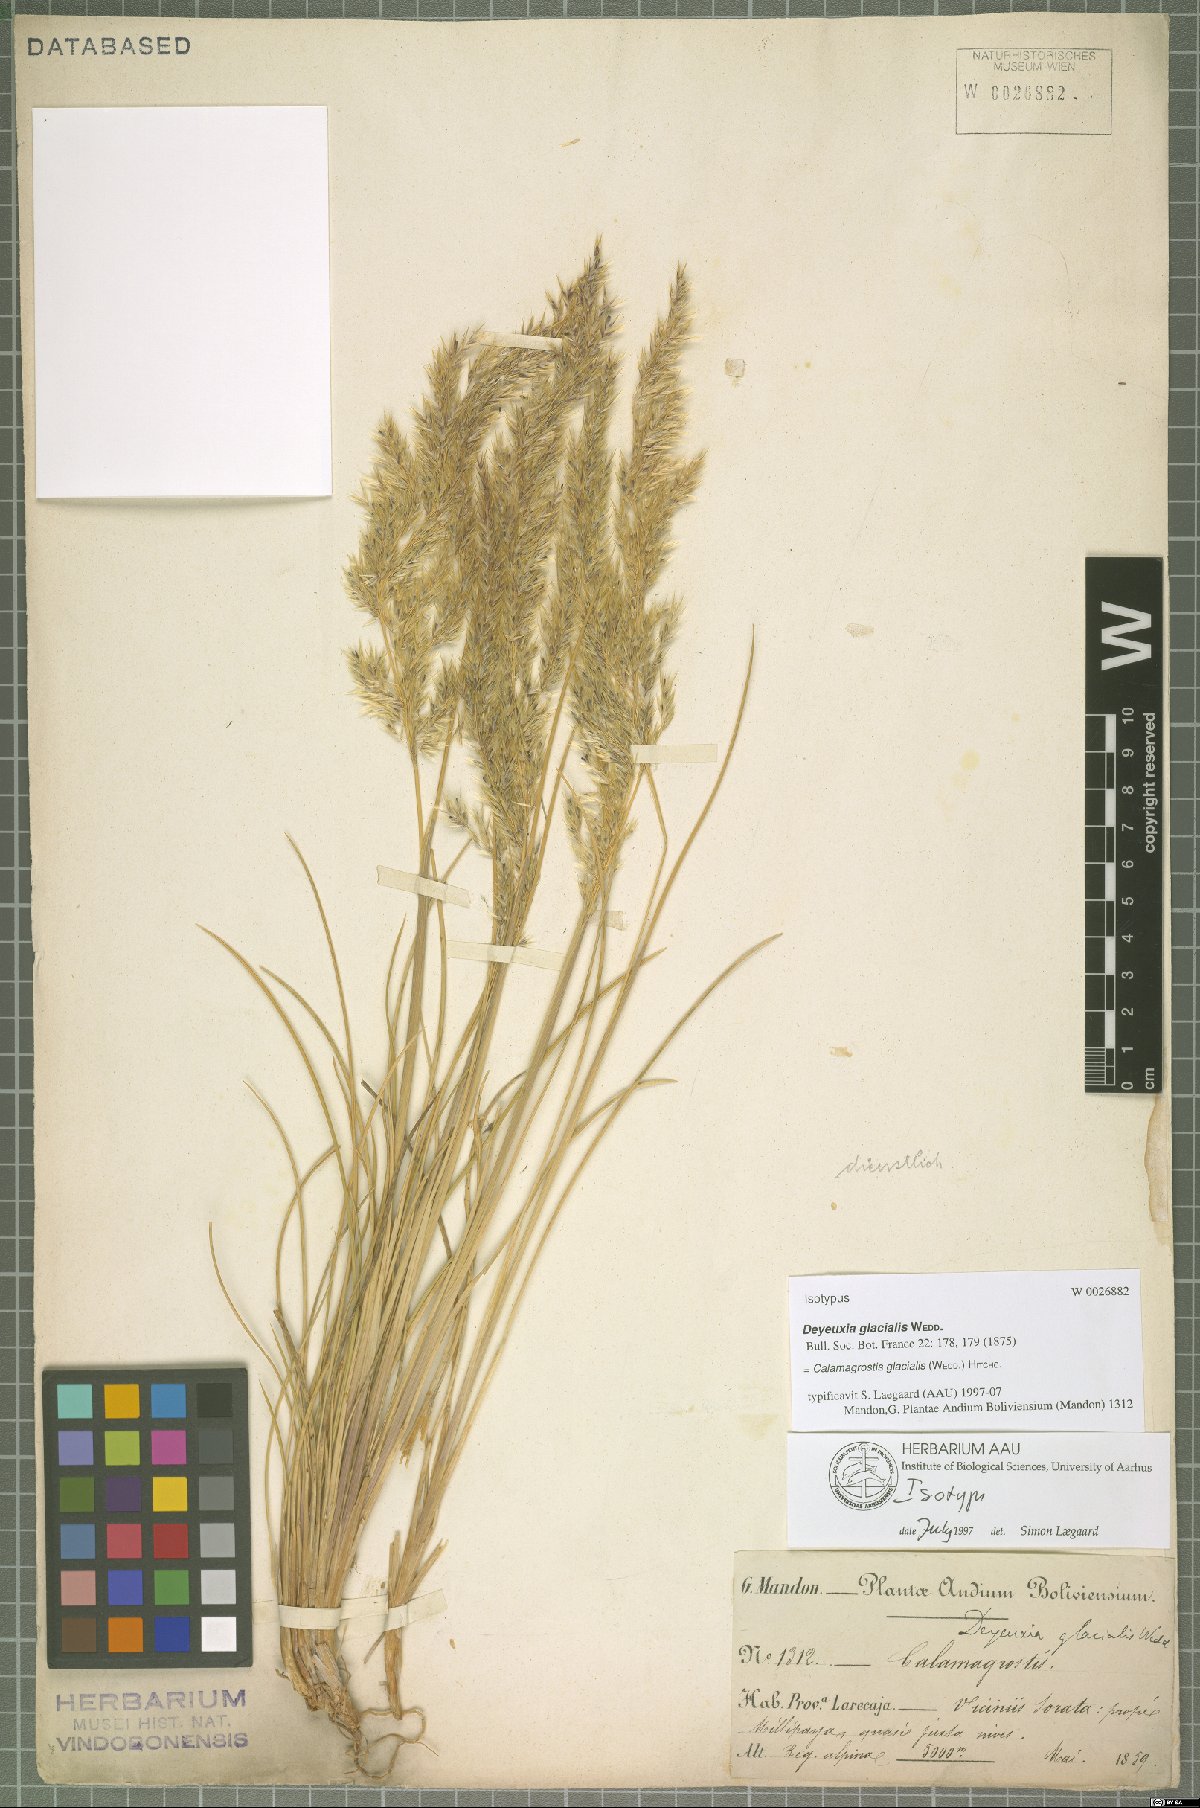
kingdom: Plantae
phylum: Tracheophyta
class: Liliopsida
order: Poales
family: Poaceae
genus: Cinnagrostis
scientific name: Cinnagrostis glacialis
